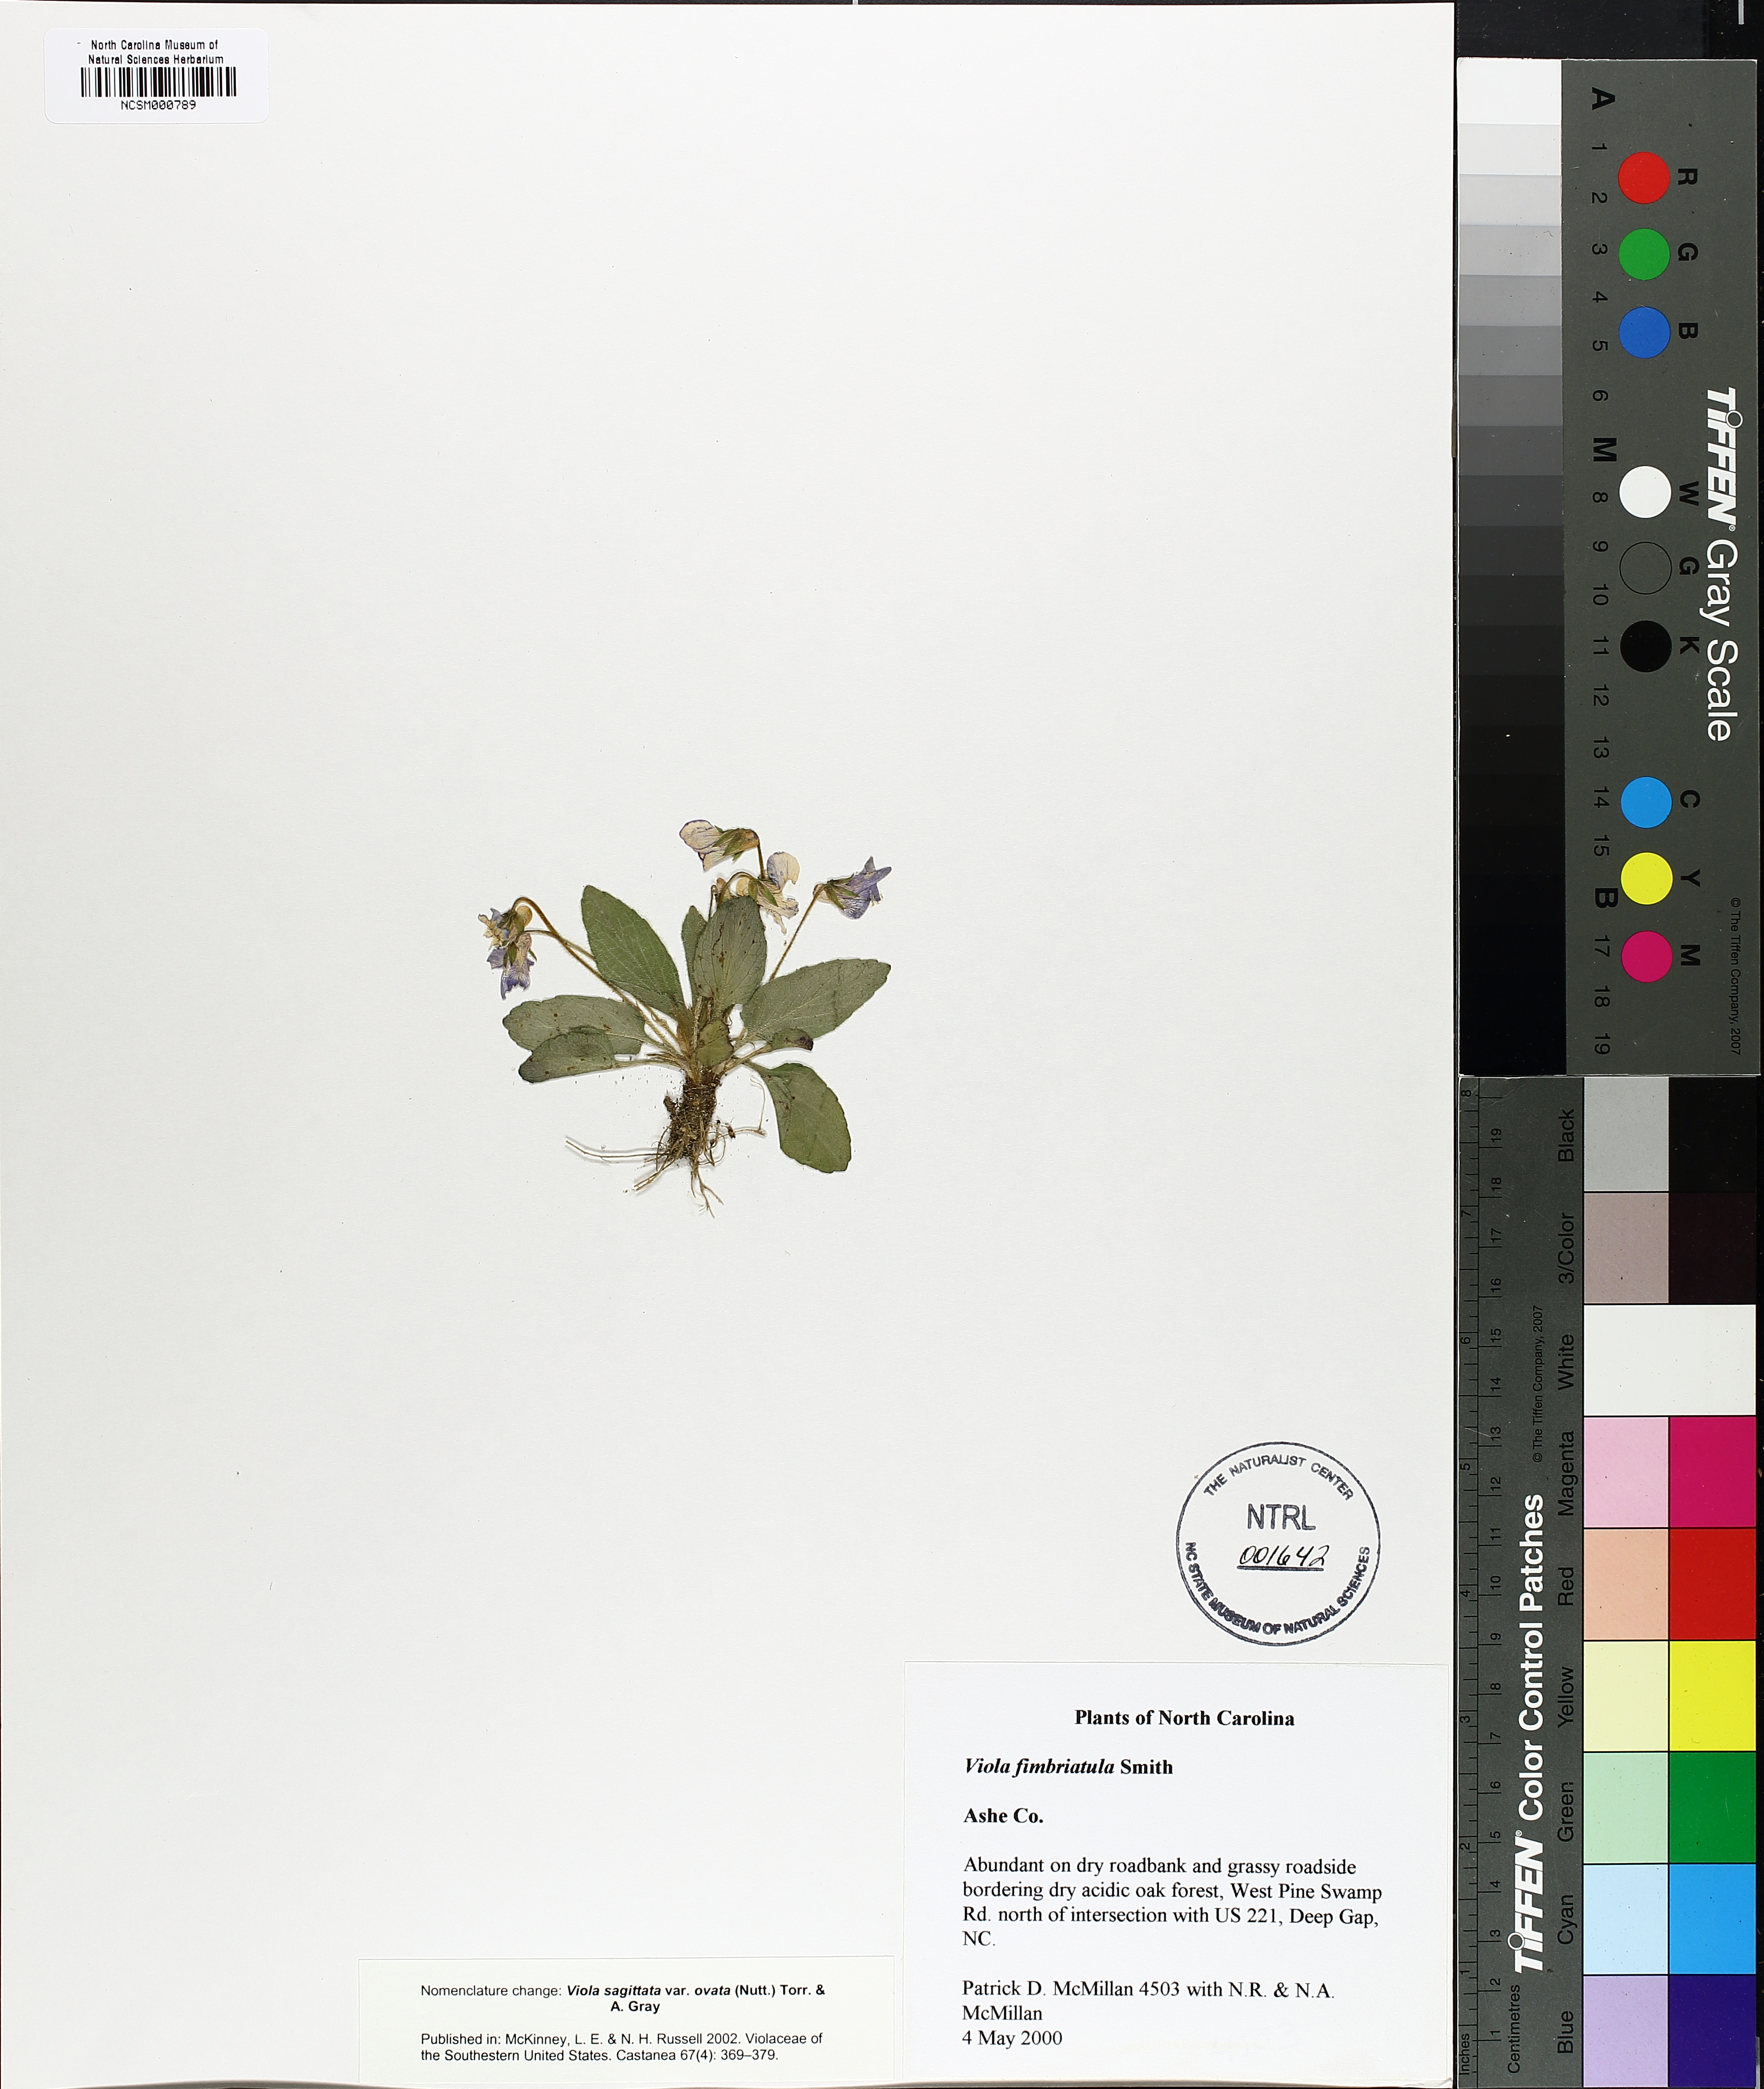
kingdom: Plantae
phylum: Tracheophyta
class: Magnoliopsida
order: Malpighiales
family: Violaceae
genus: Viola
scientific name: Viola fimbriatula
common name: Sand violet
